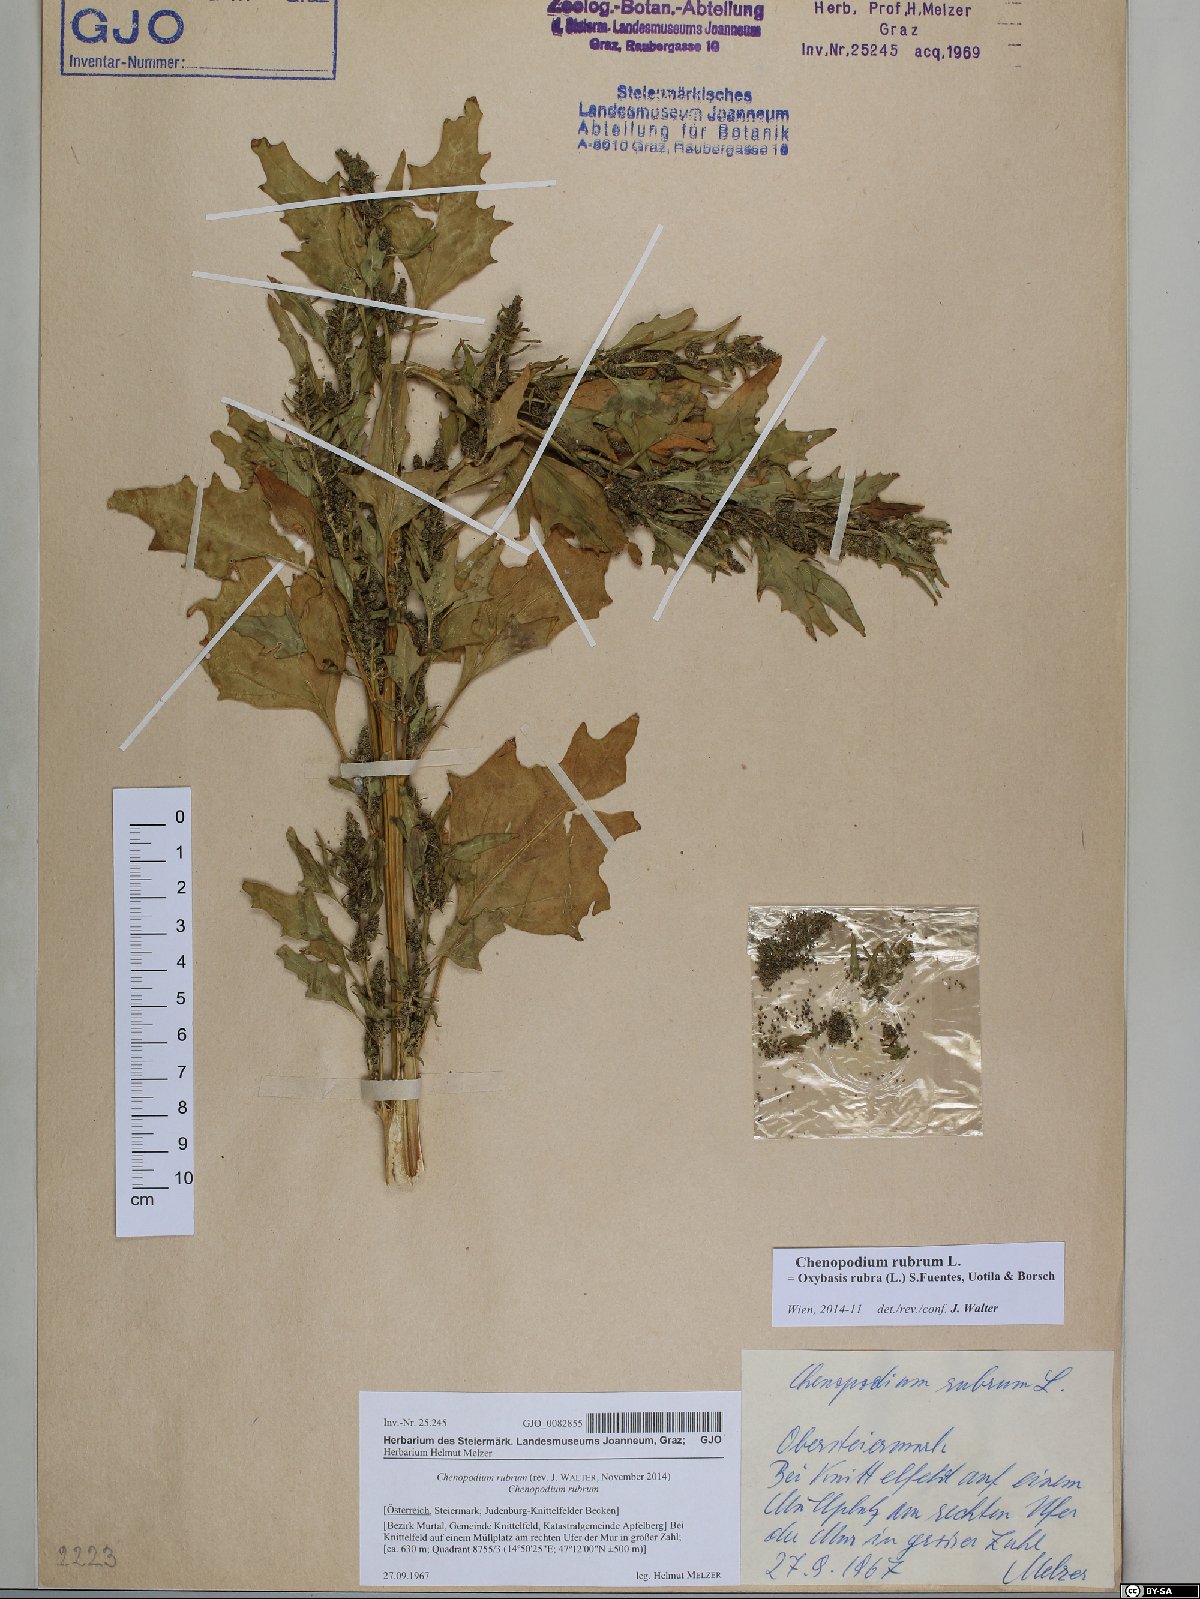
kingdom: Plantae
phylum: Tracheophyta
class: Magnoliopsida
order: Caryophyllales
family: Amaranthaceae
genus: Oxybasis
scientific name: Oxybasis rubra
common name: Red goosefoot
